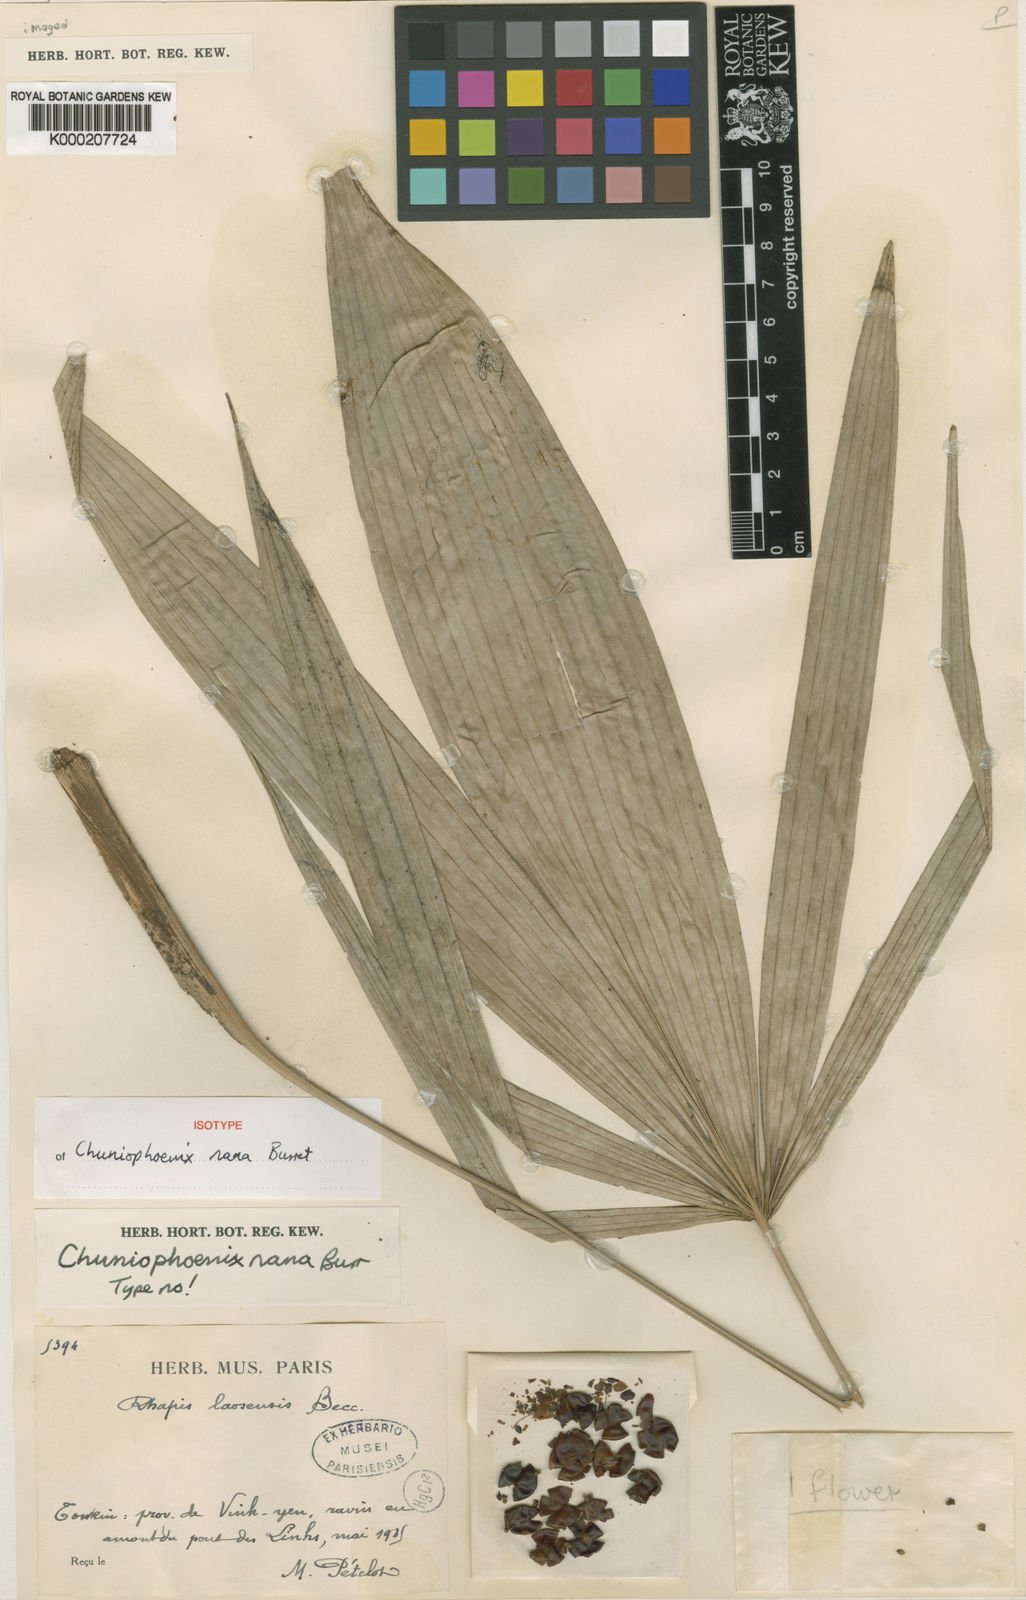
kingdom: Plantae
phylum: Tracheophyta
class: Liliopsida
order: Arecales
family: Arecaceae
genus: Chuniophoenix
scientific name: Chuniophoenix nana
